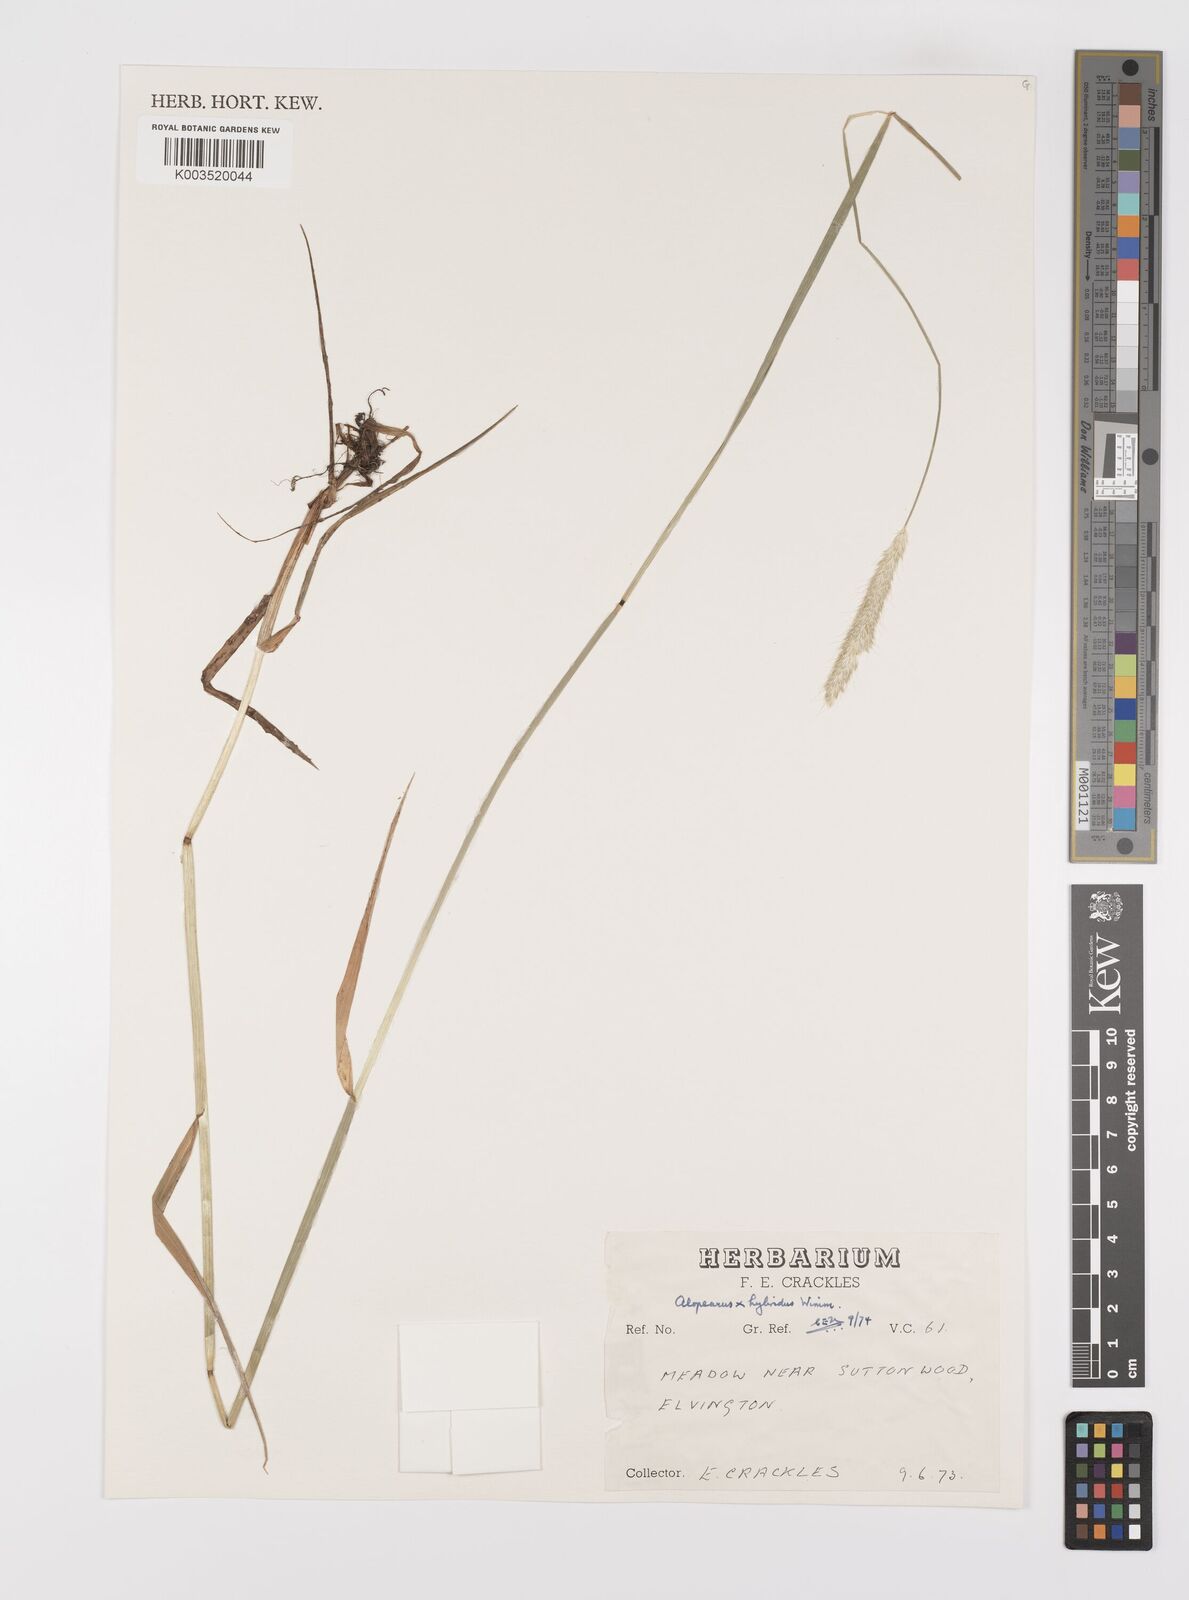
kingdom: Plantae
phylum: Tracheophyta
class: Liliopsida
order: Poales
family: Poaceae
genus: Alopecurus
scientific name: Alopecurus brachystylus
